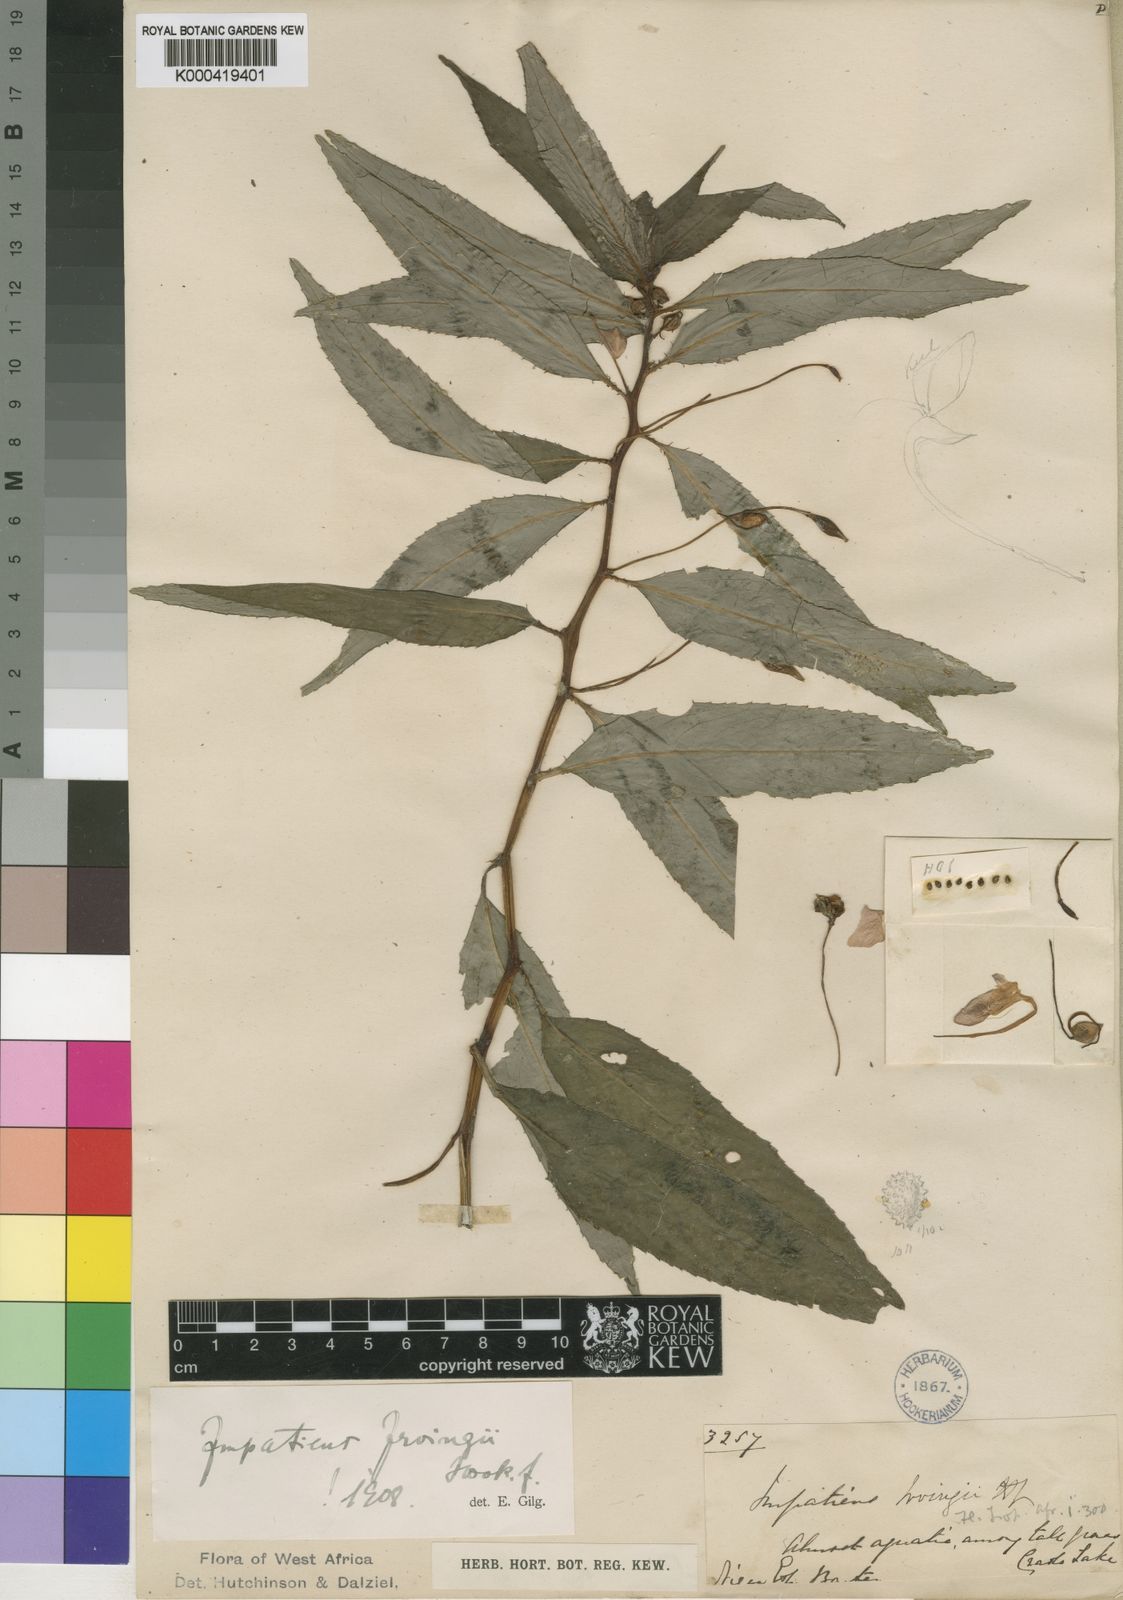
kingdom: Plantae
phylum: Tracheophyta
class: Magnoliopsida
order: Ericales
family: Balsaminaceae
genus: Impatiens
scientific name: Impatiens irvingii
